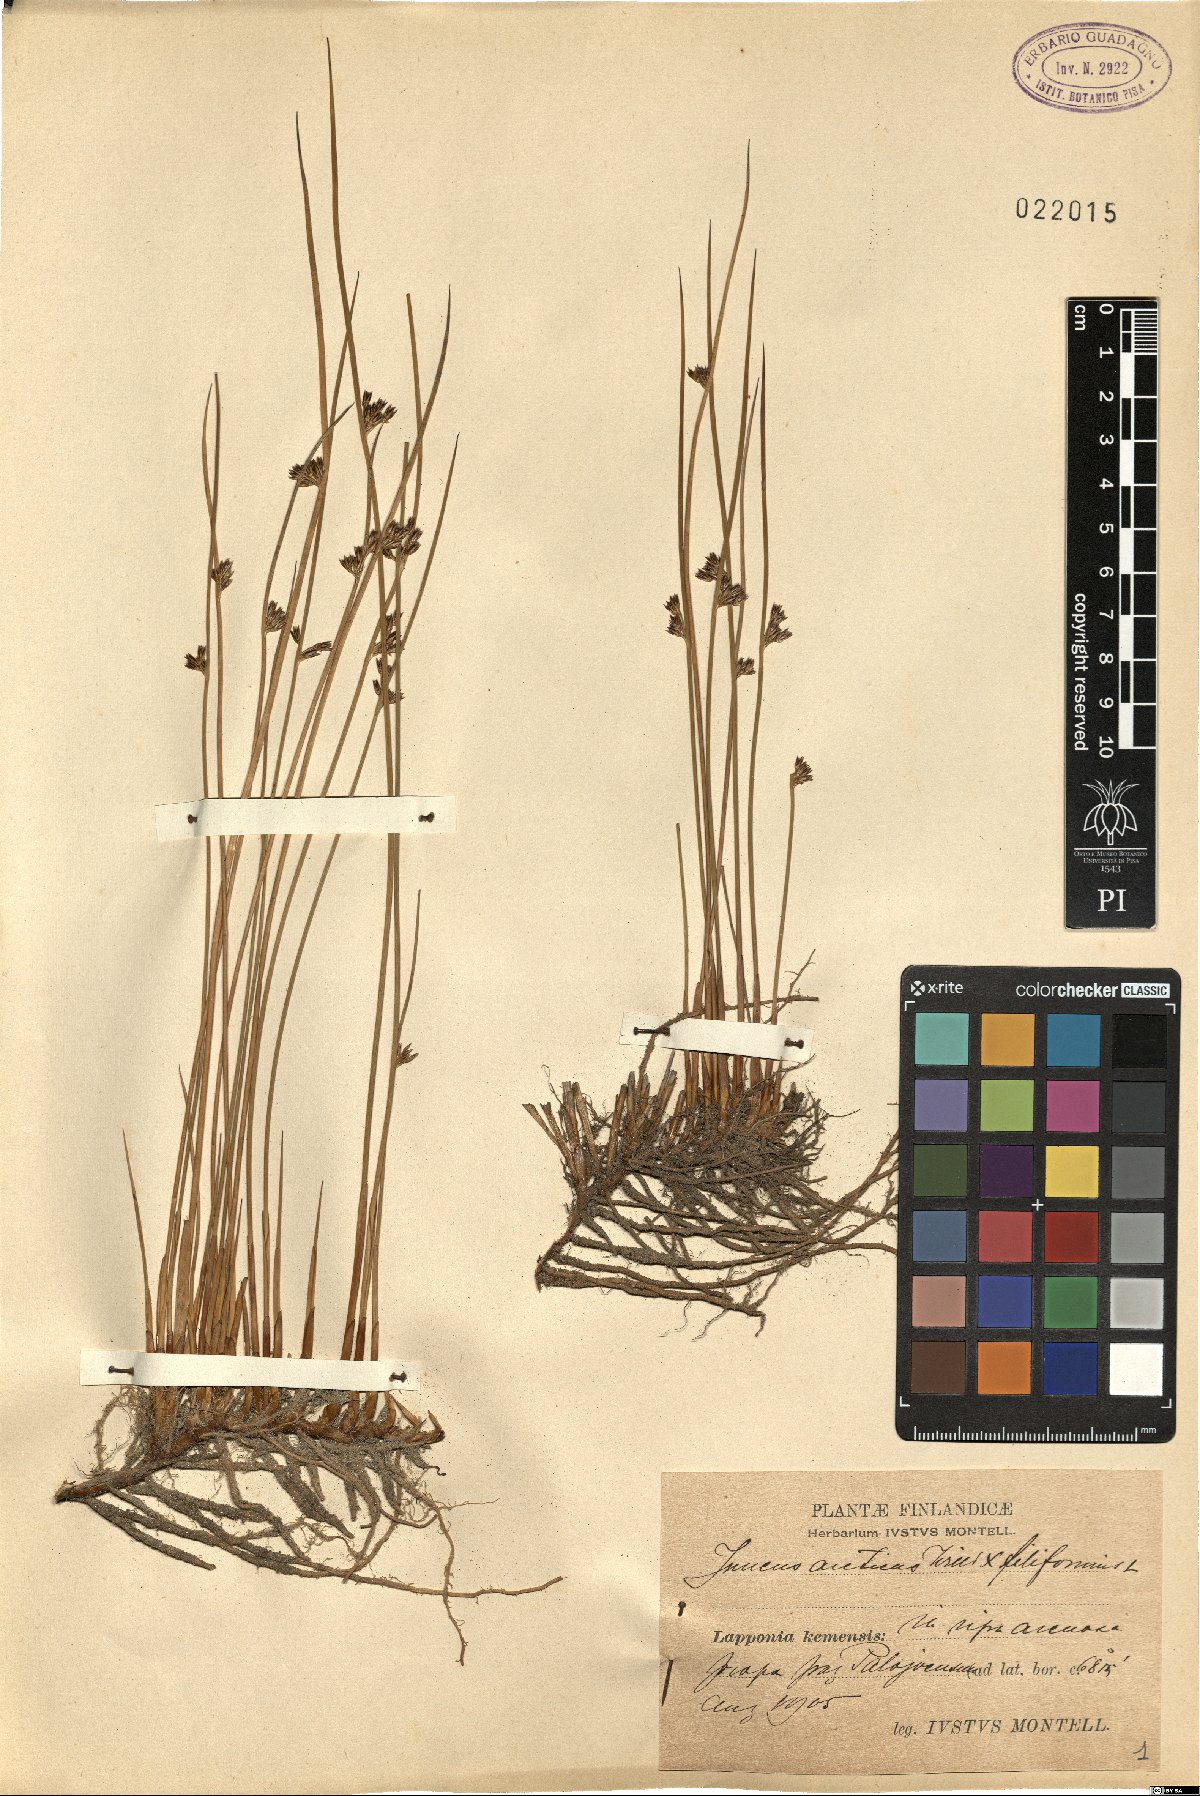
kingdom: Plantae
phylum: Tracheophyta
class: Liliopsida
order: Poales
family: Juncaceae
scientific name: Juncaceae
